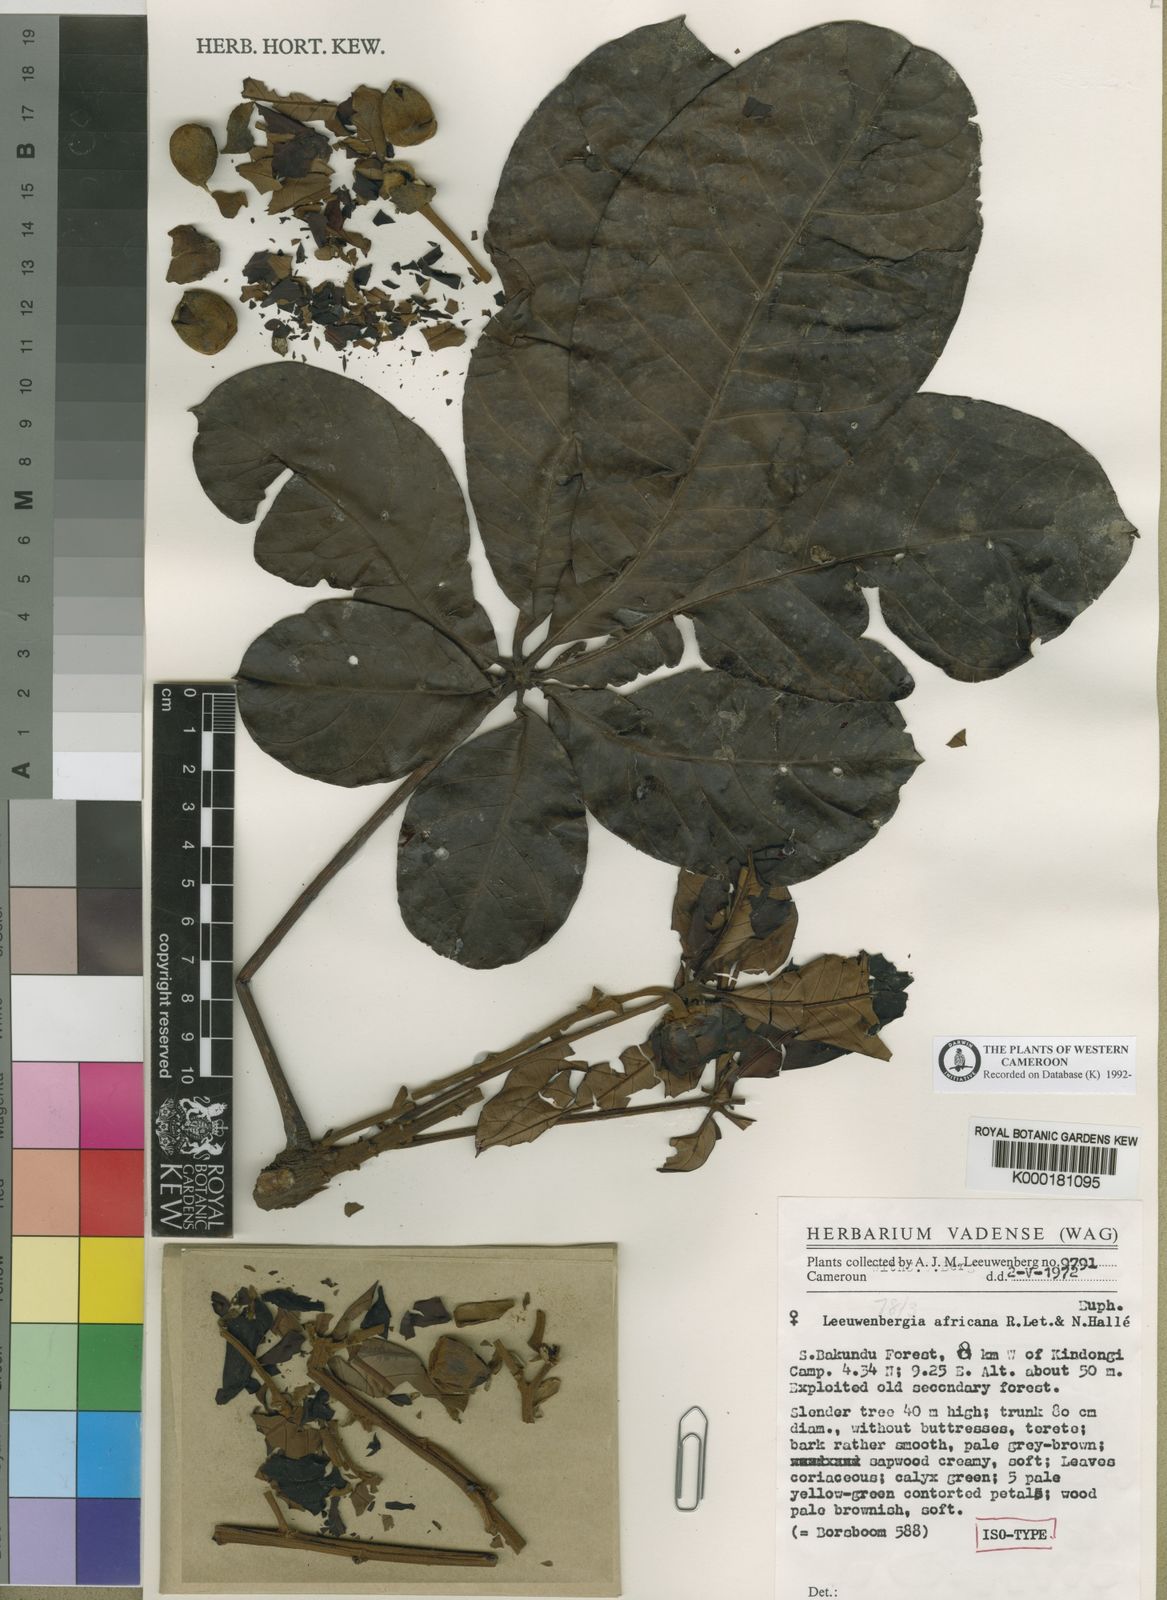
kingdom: Plantae
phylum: Tracheophyta
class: Magnoliopsida
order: Malpighiales
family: Euphorbiaceae
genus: Leeuwenbergia
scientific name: Leeuwenbergia
